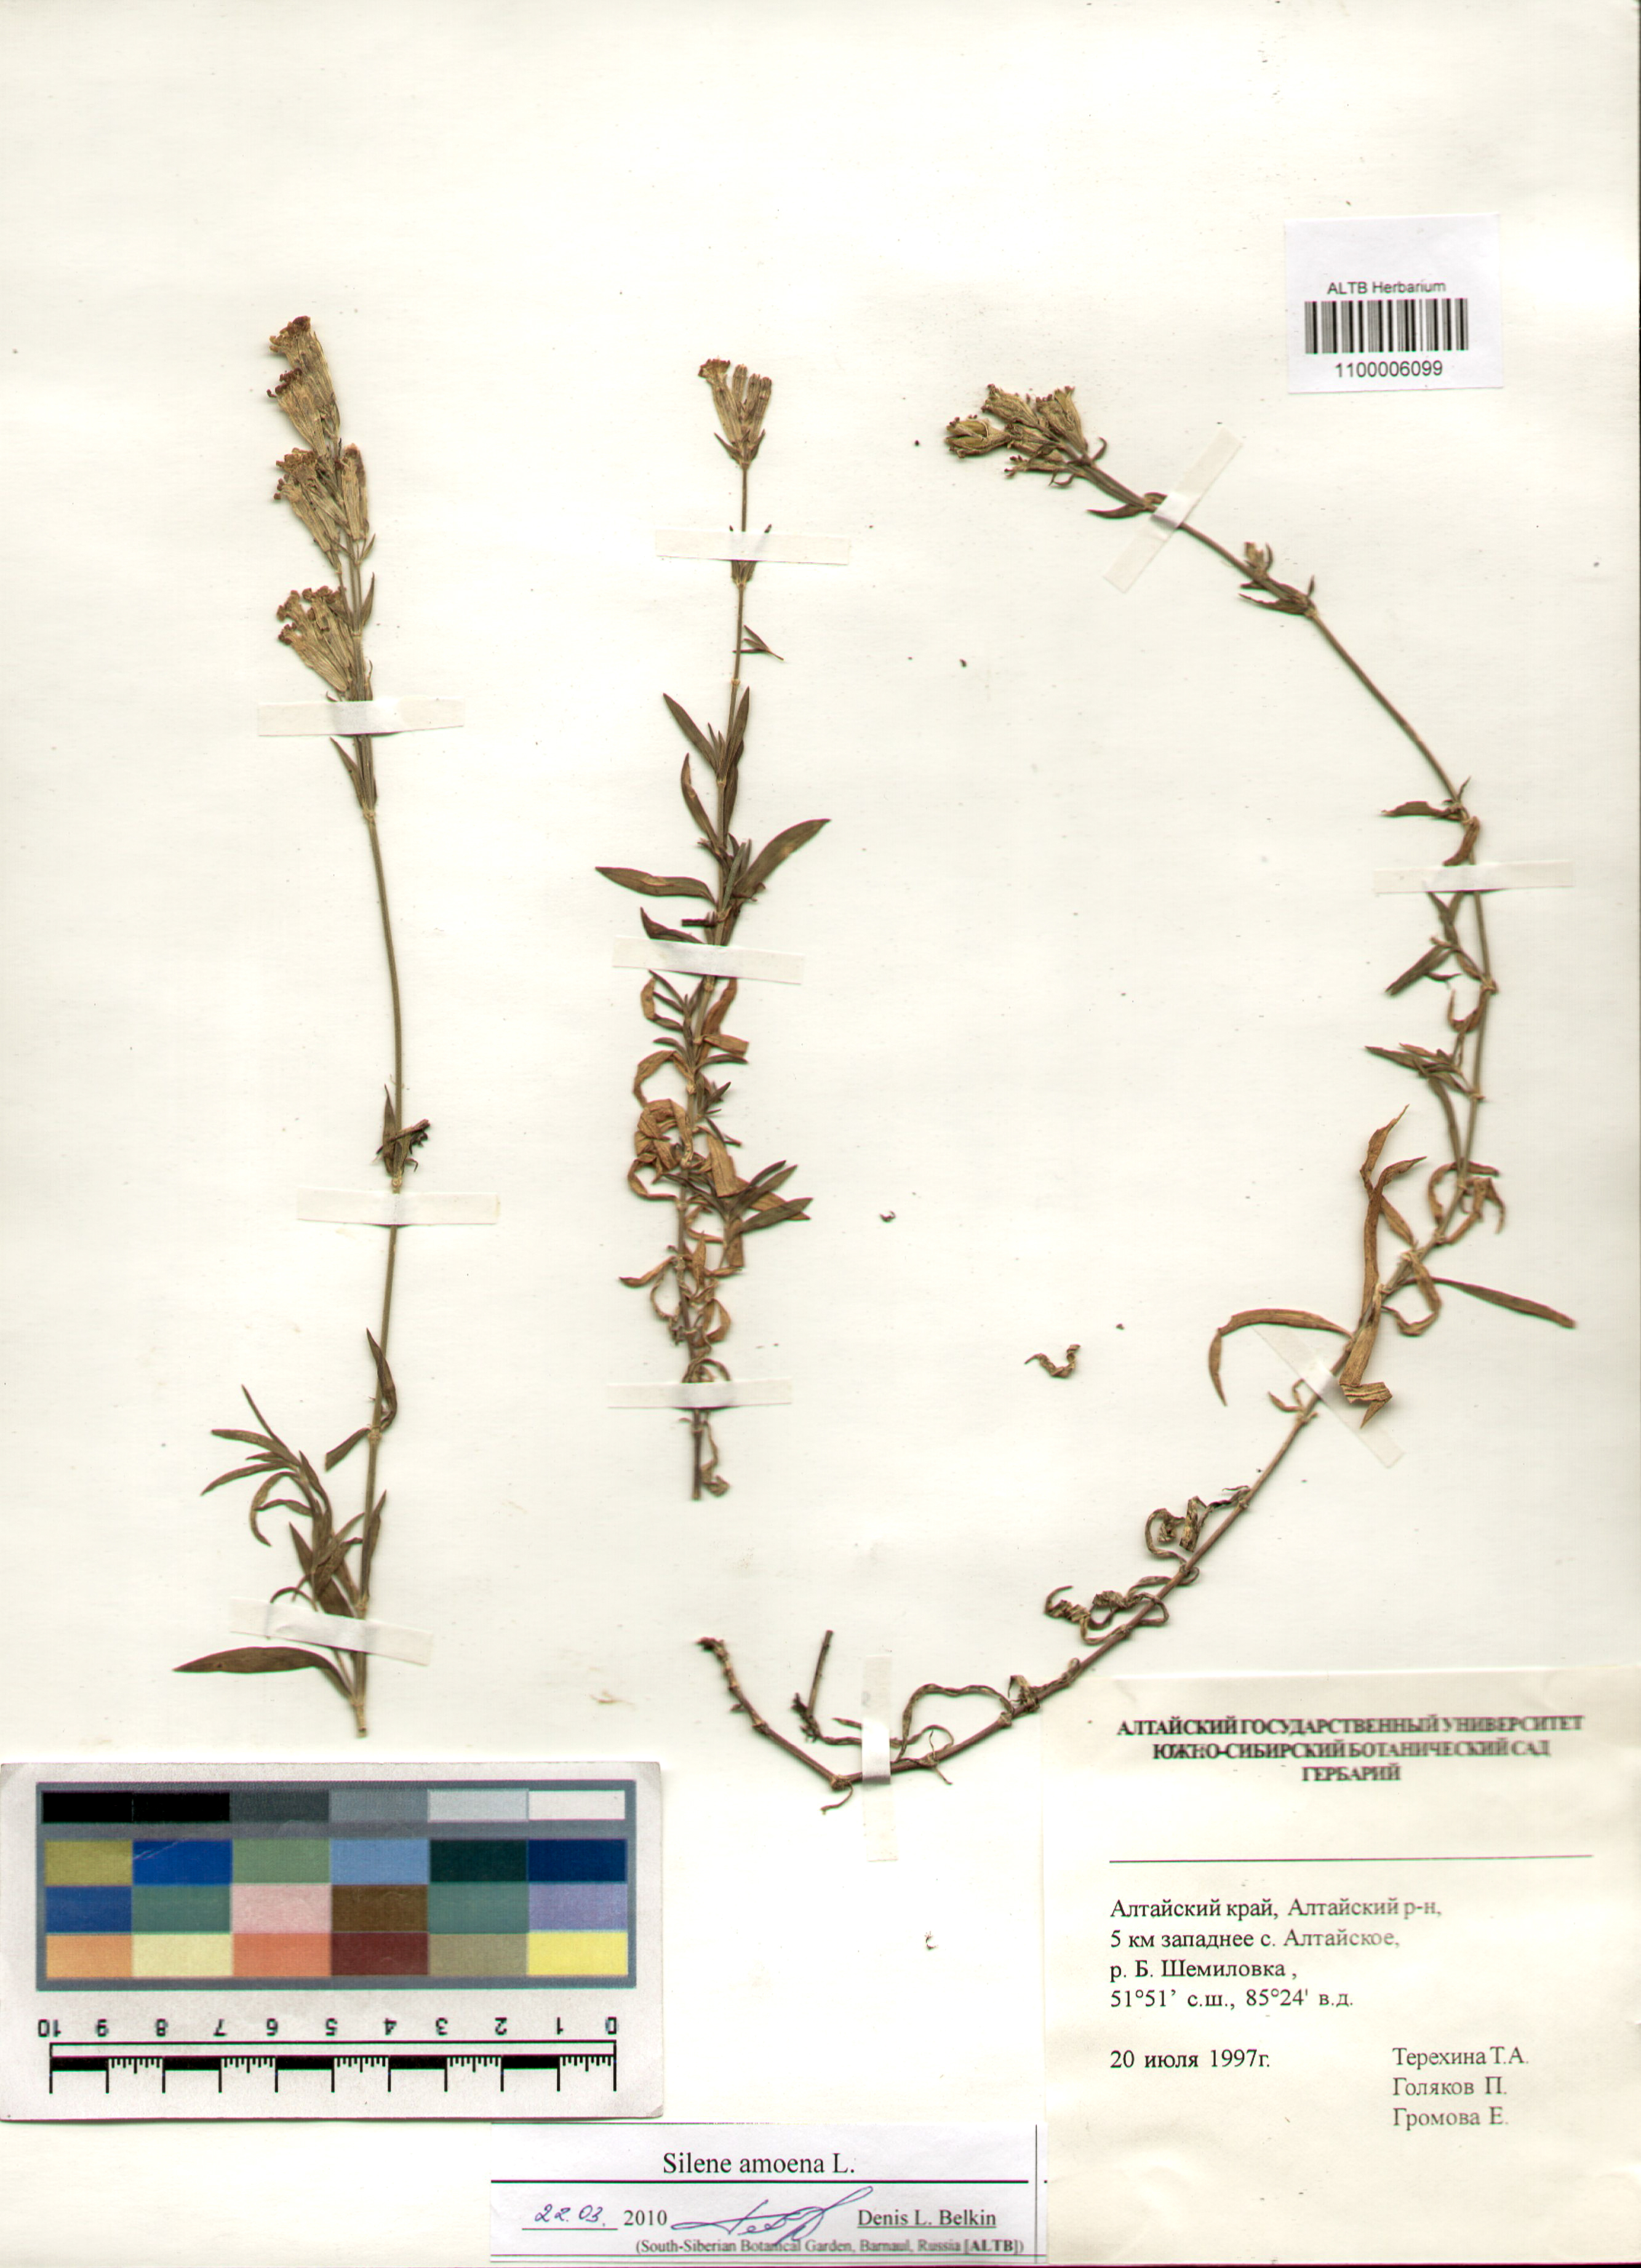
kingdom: Plantae
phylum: Tracheophyta
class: Magnoliopsida
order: Caryophyllales
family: Caryophyllaceae
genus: Silene
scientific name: Silene amoena
